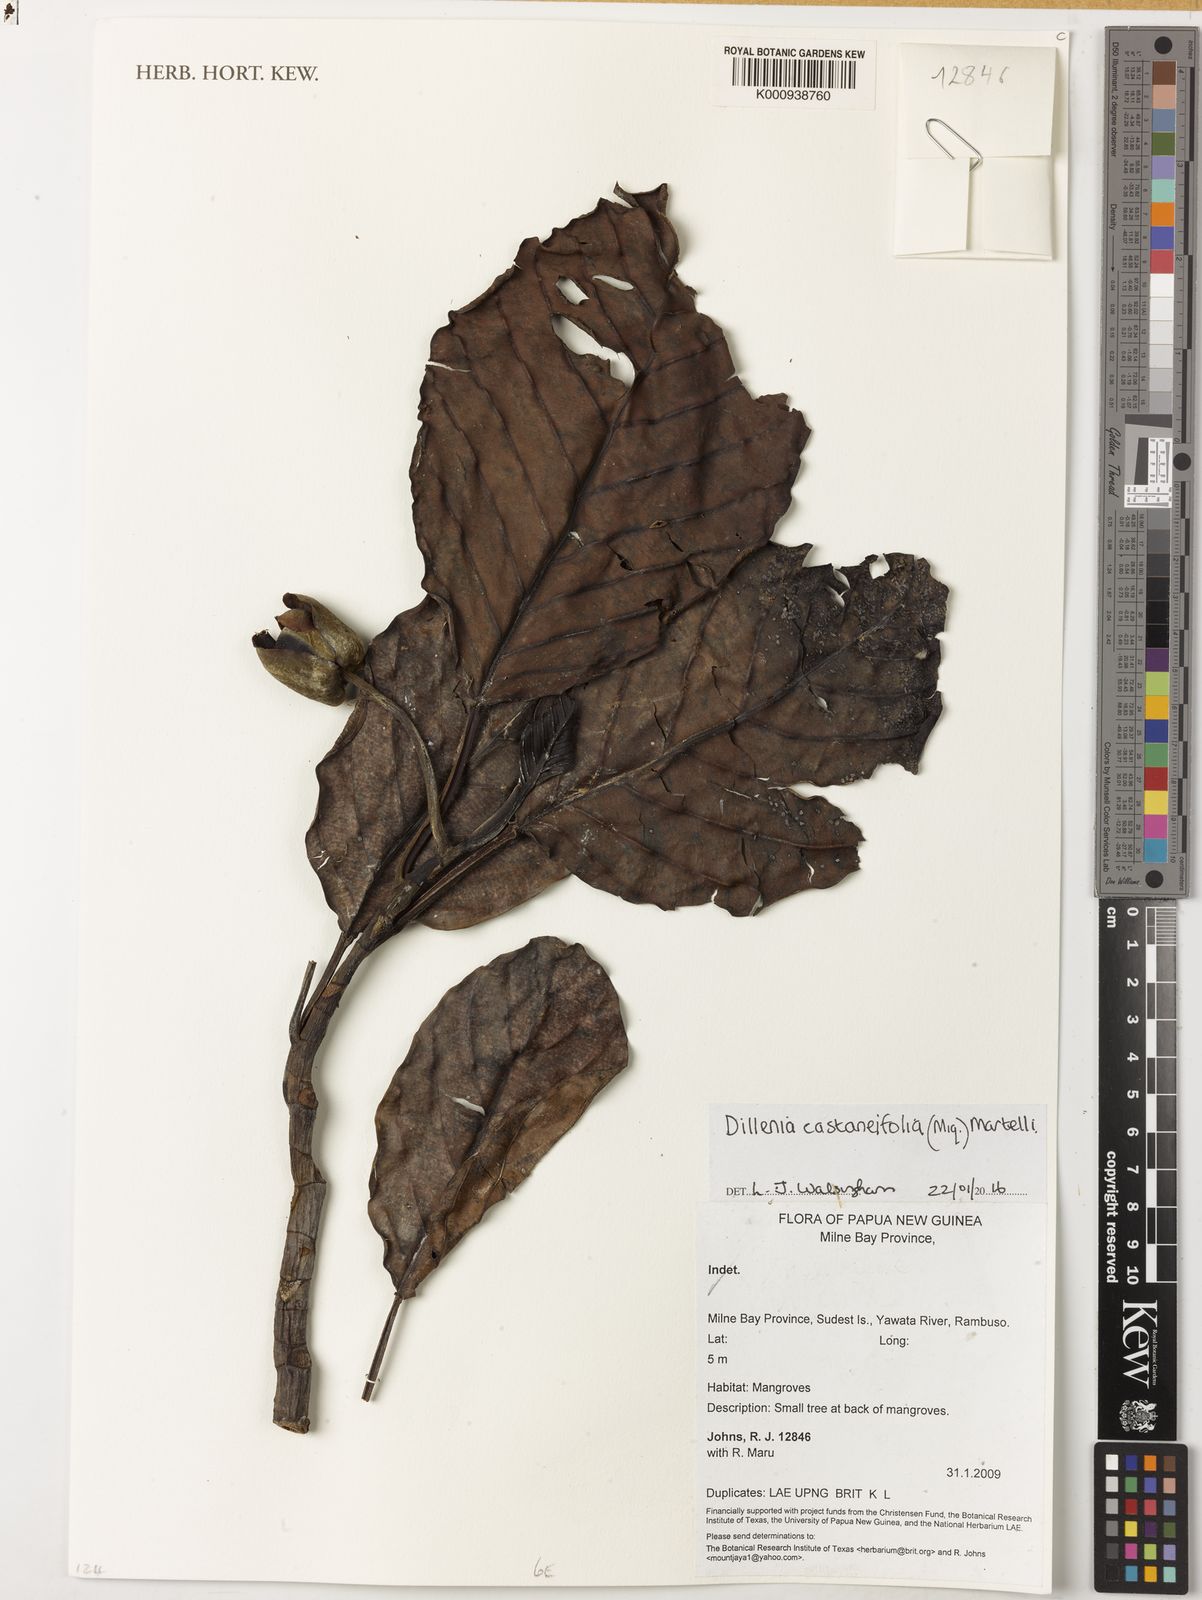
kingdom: Plantae
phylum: Tracheophyta
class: Magnoliopsida
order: Dilleniales
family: Dilleniaceae
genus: Dillenia
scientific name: Dillenia castaneifolia
